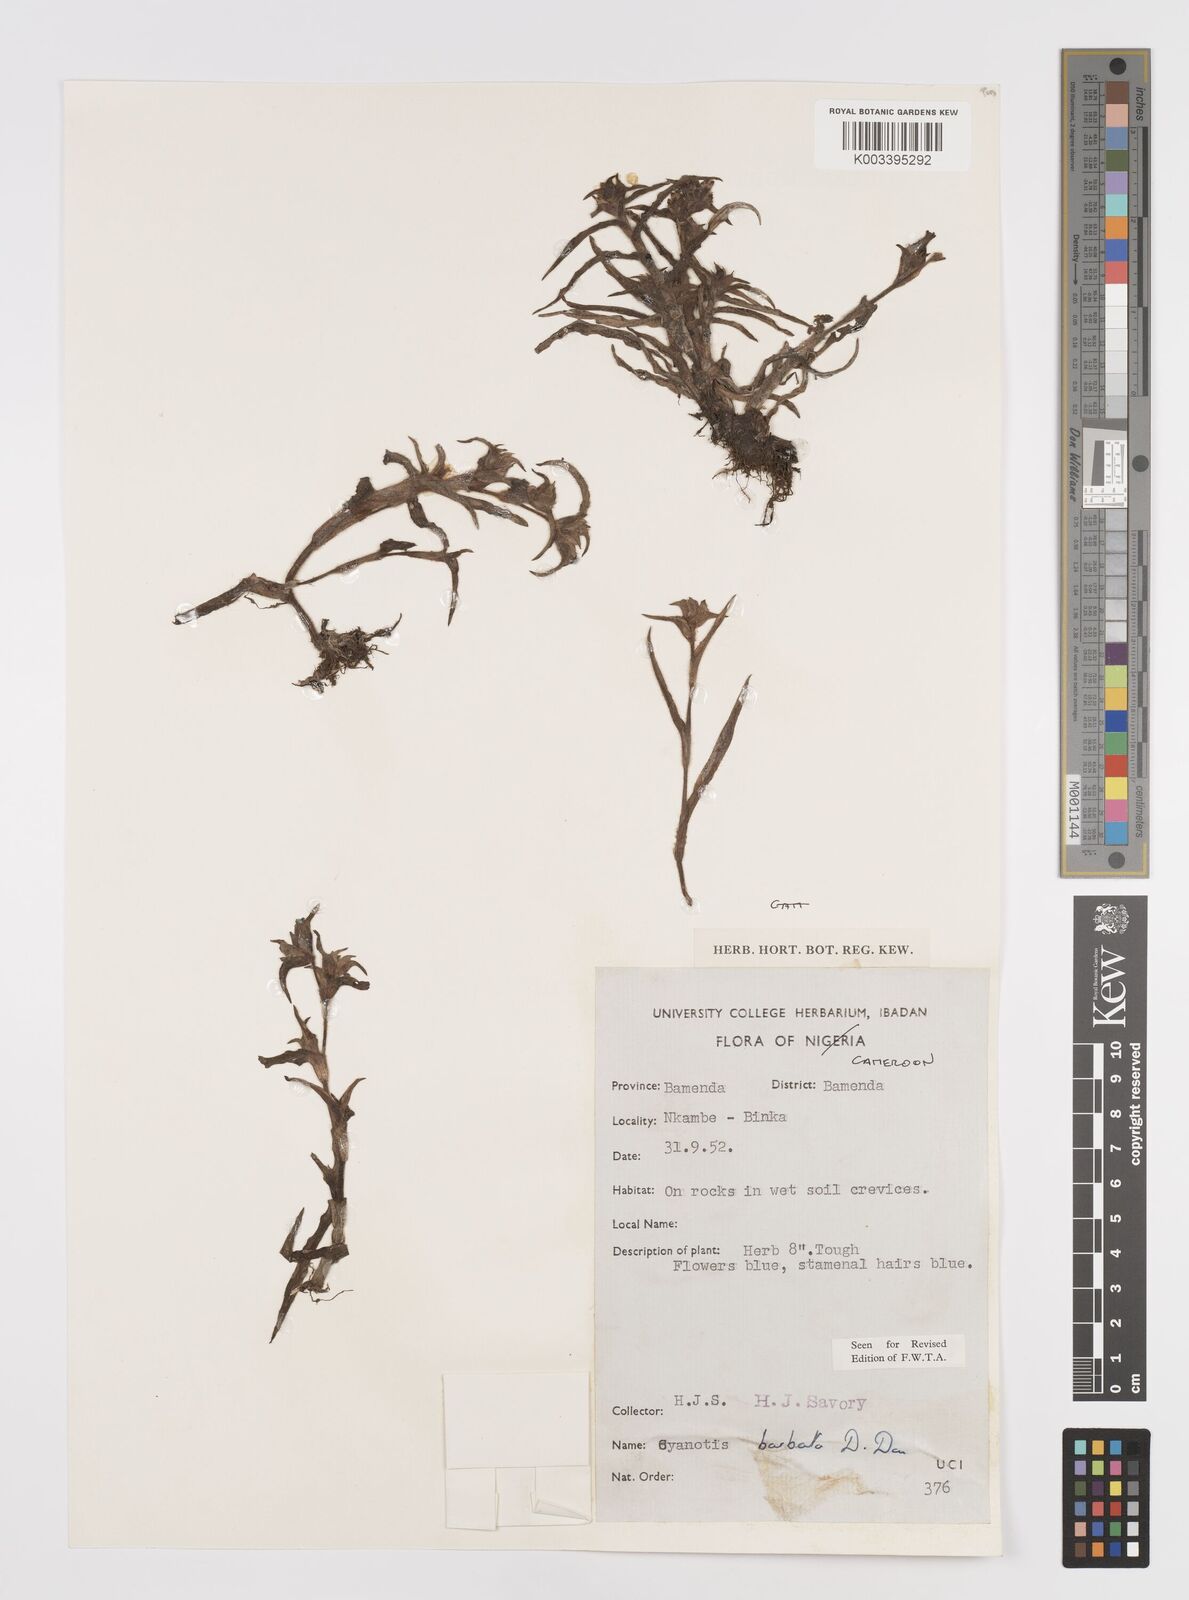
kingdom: Plantae
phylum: Tracheophyta
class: Liliopsida
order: Commelinales
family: Commelinaceae
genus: Cyanotis
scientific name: Cyanotis vaga
